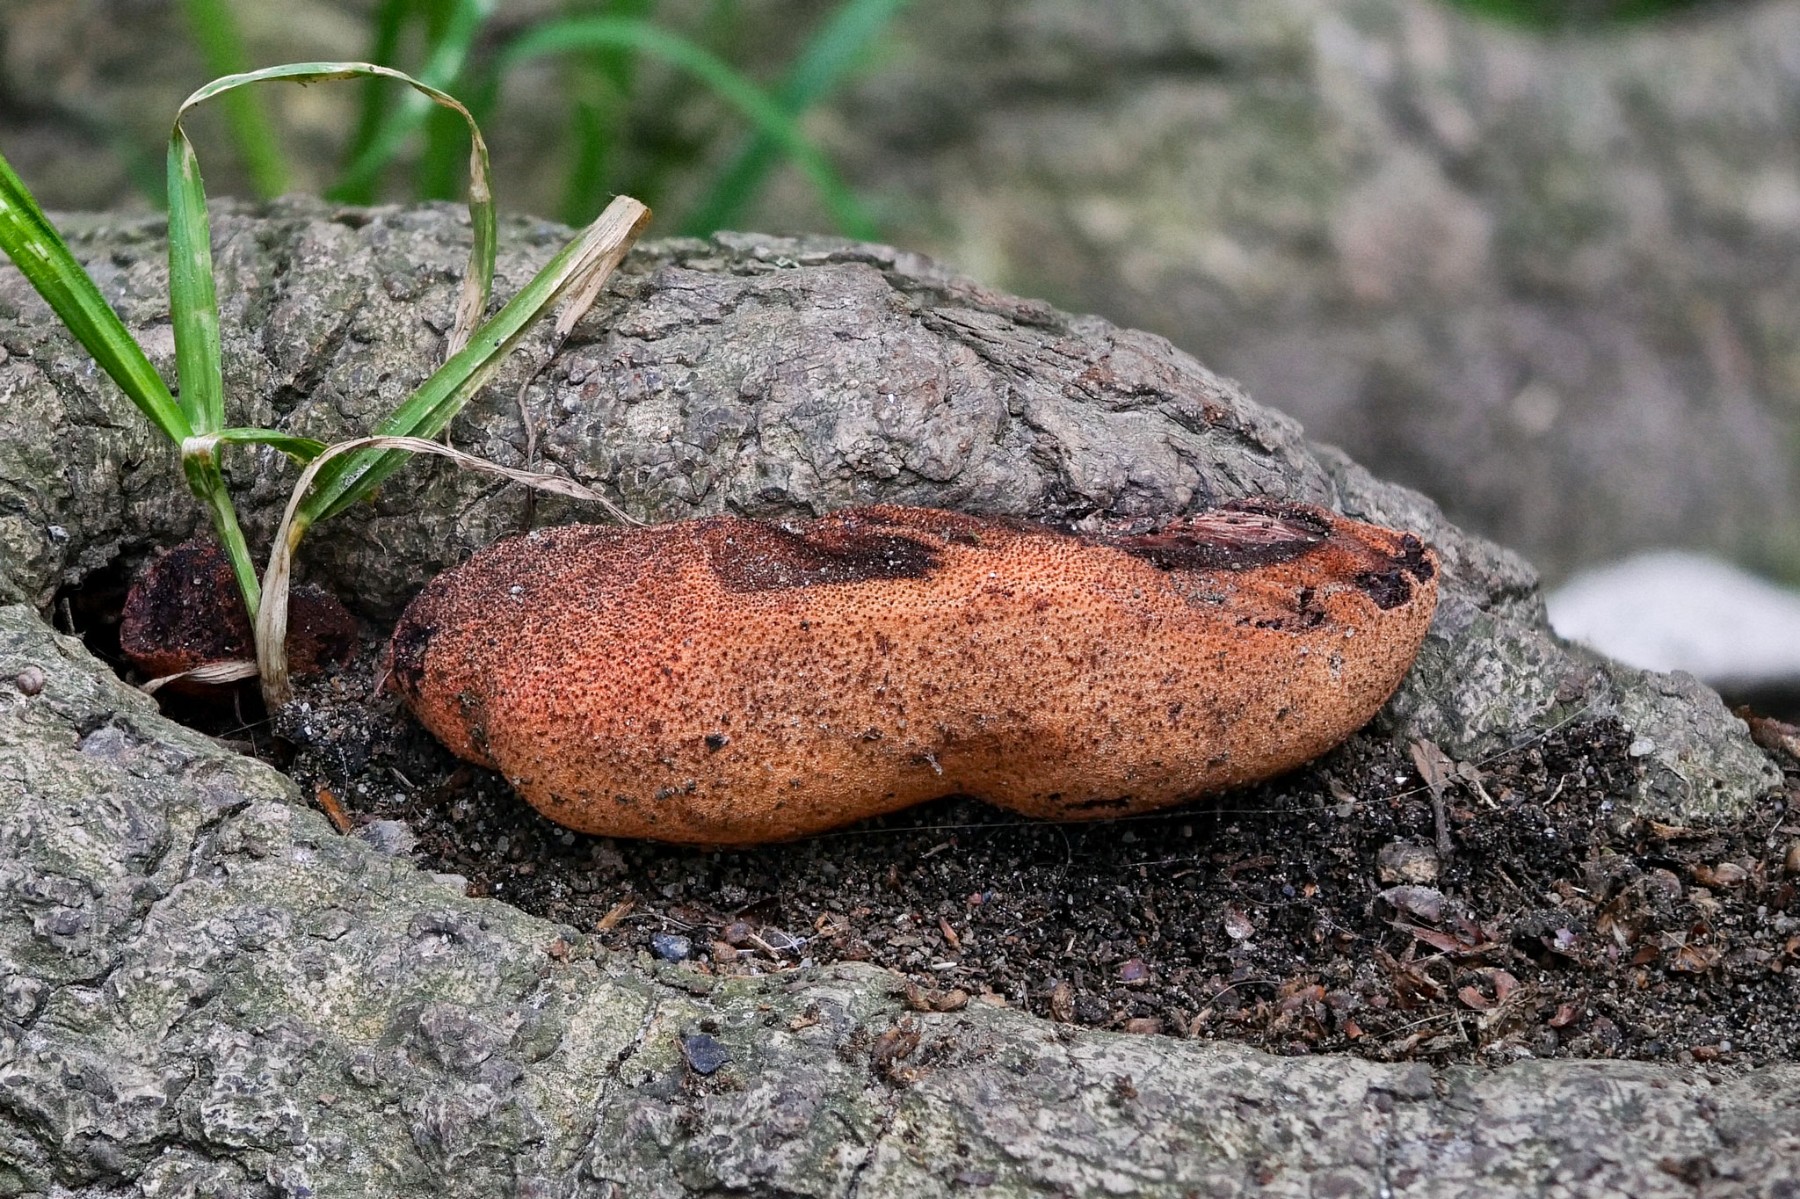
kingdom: Fungi
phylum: Basidiomycota
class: Agaricomycetes
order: Agaricales
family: Fistulinaceae
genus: Fistulina
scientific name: Fistulina hepatica
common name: oksetunge
